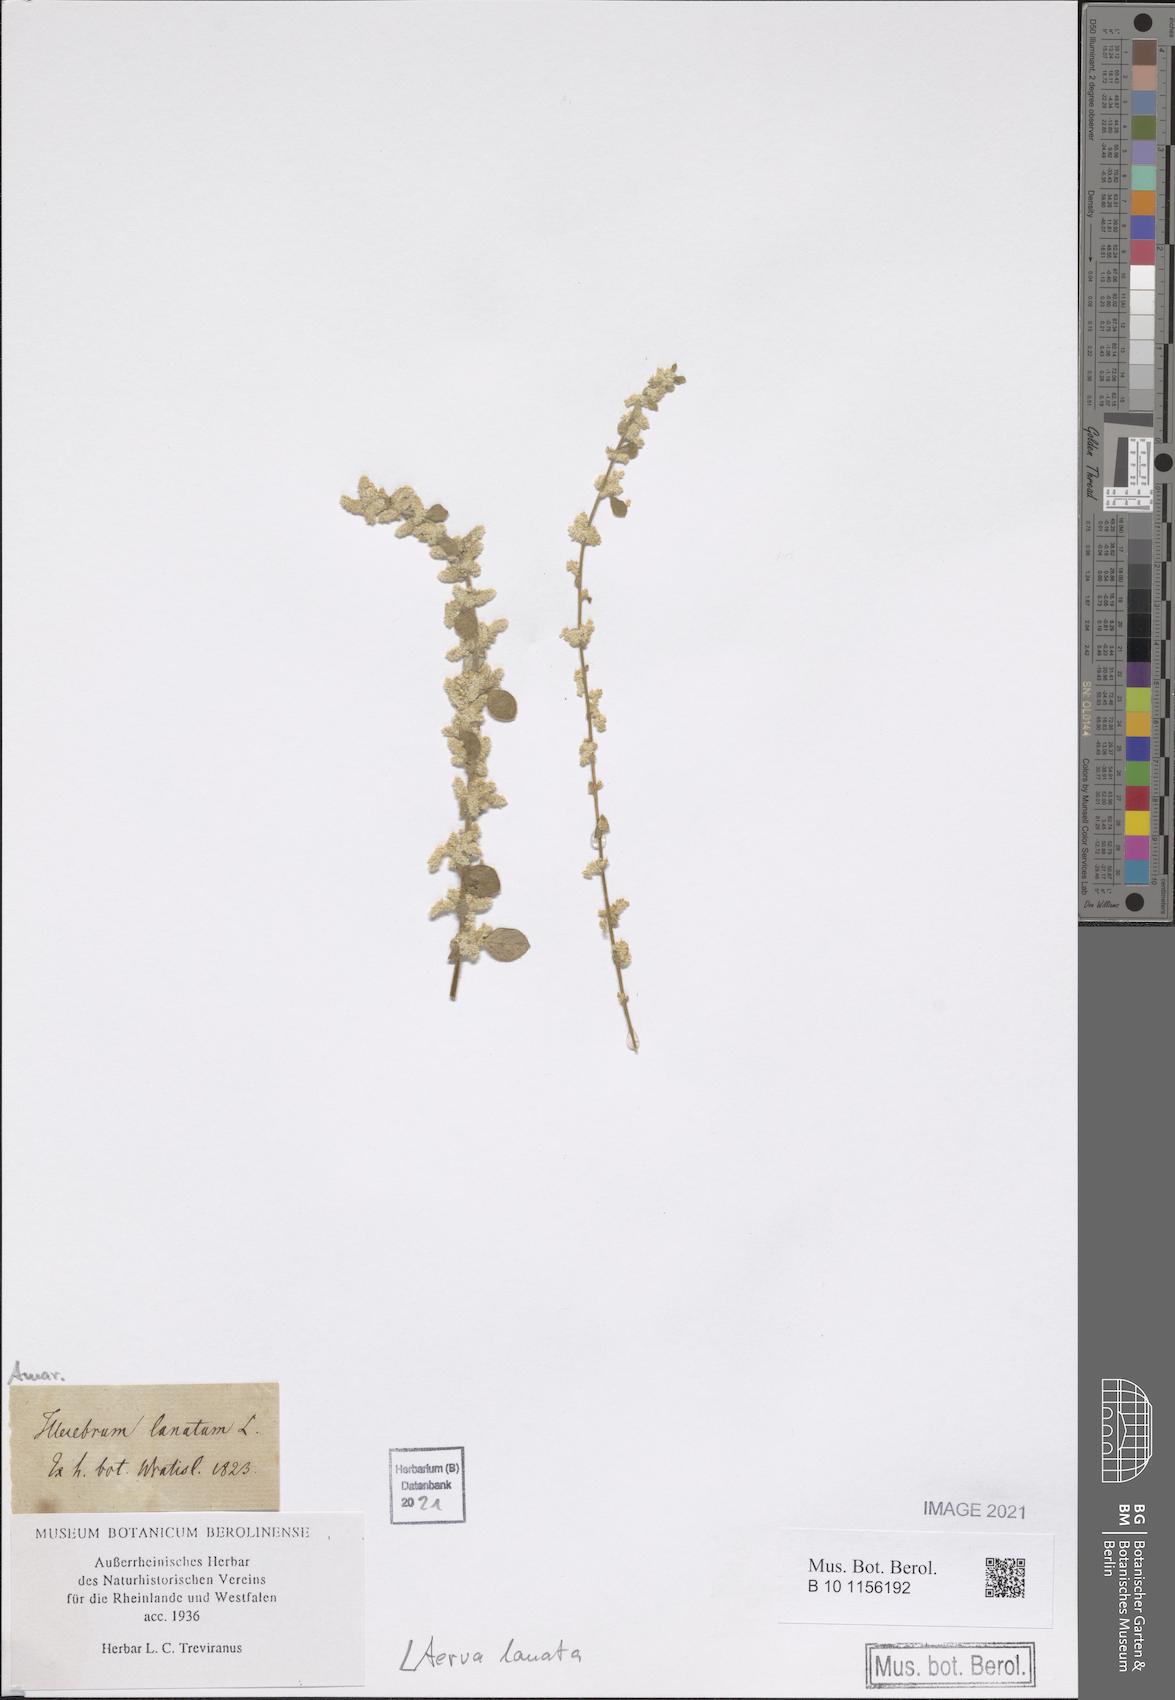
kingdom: Plantae
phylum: Tracheophyta
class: Magnoliopsida
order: Caryophyllales
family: Amaranthaceae
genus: Ouret
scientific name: Ouret lanata
